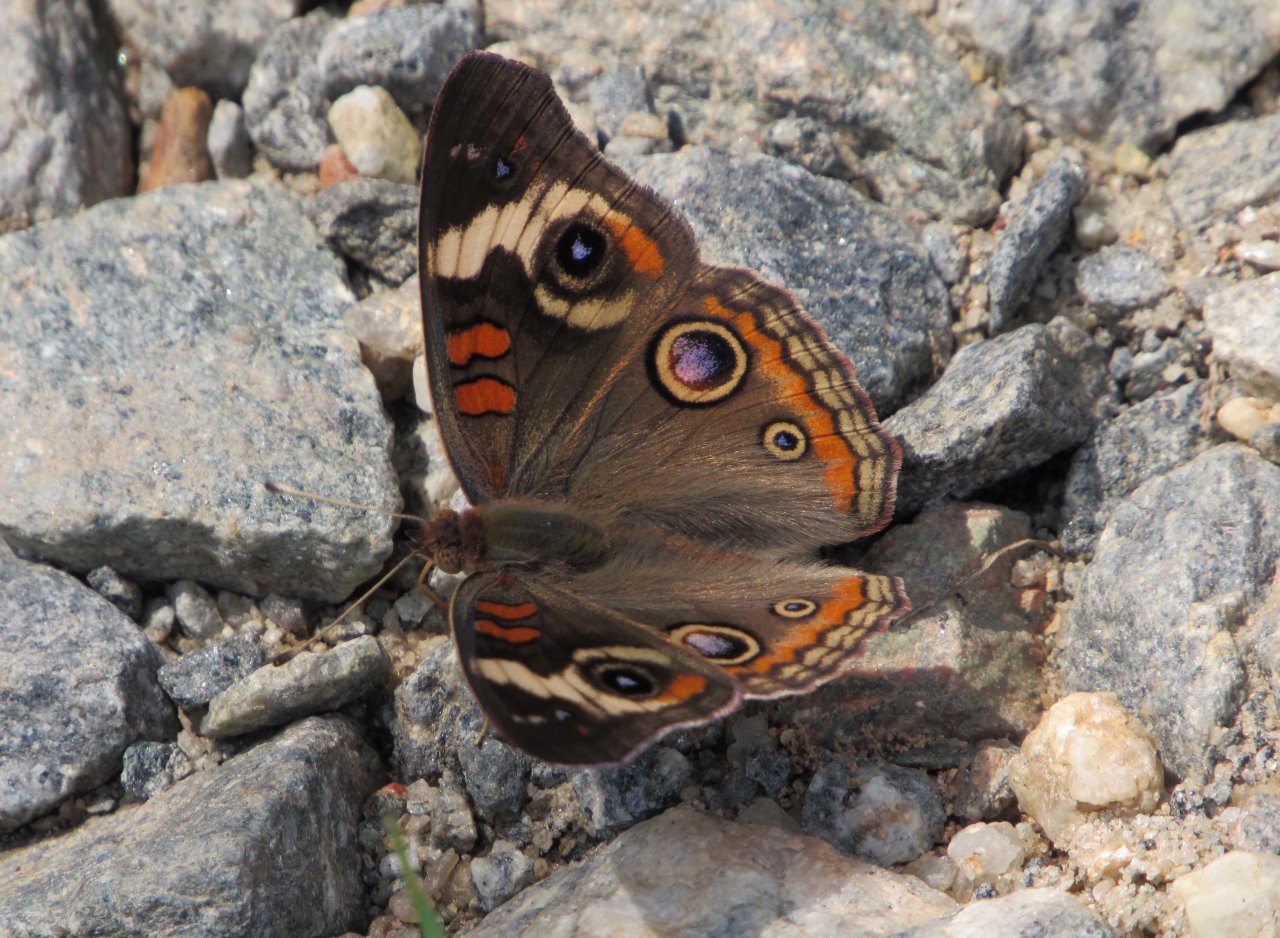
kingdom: Animalia
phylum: Arthropoda
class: Insecta
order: Lepidoptera
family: Nymphalidae
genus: Junonia
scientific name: Junonia coenia
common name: Common Buckeye
